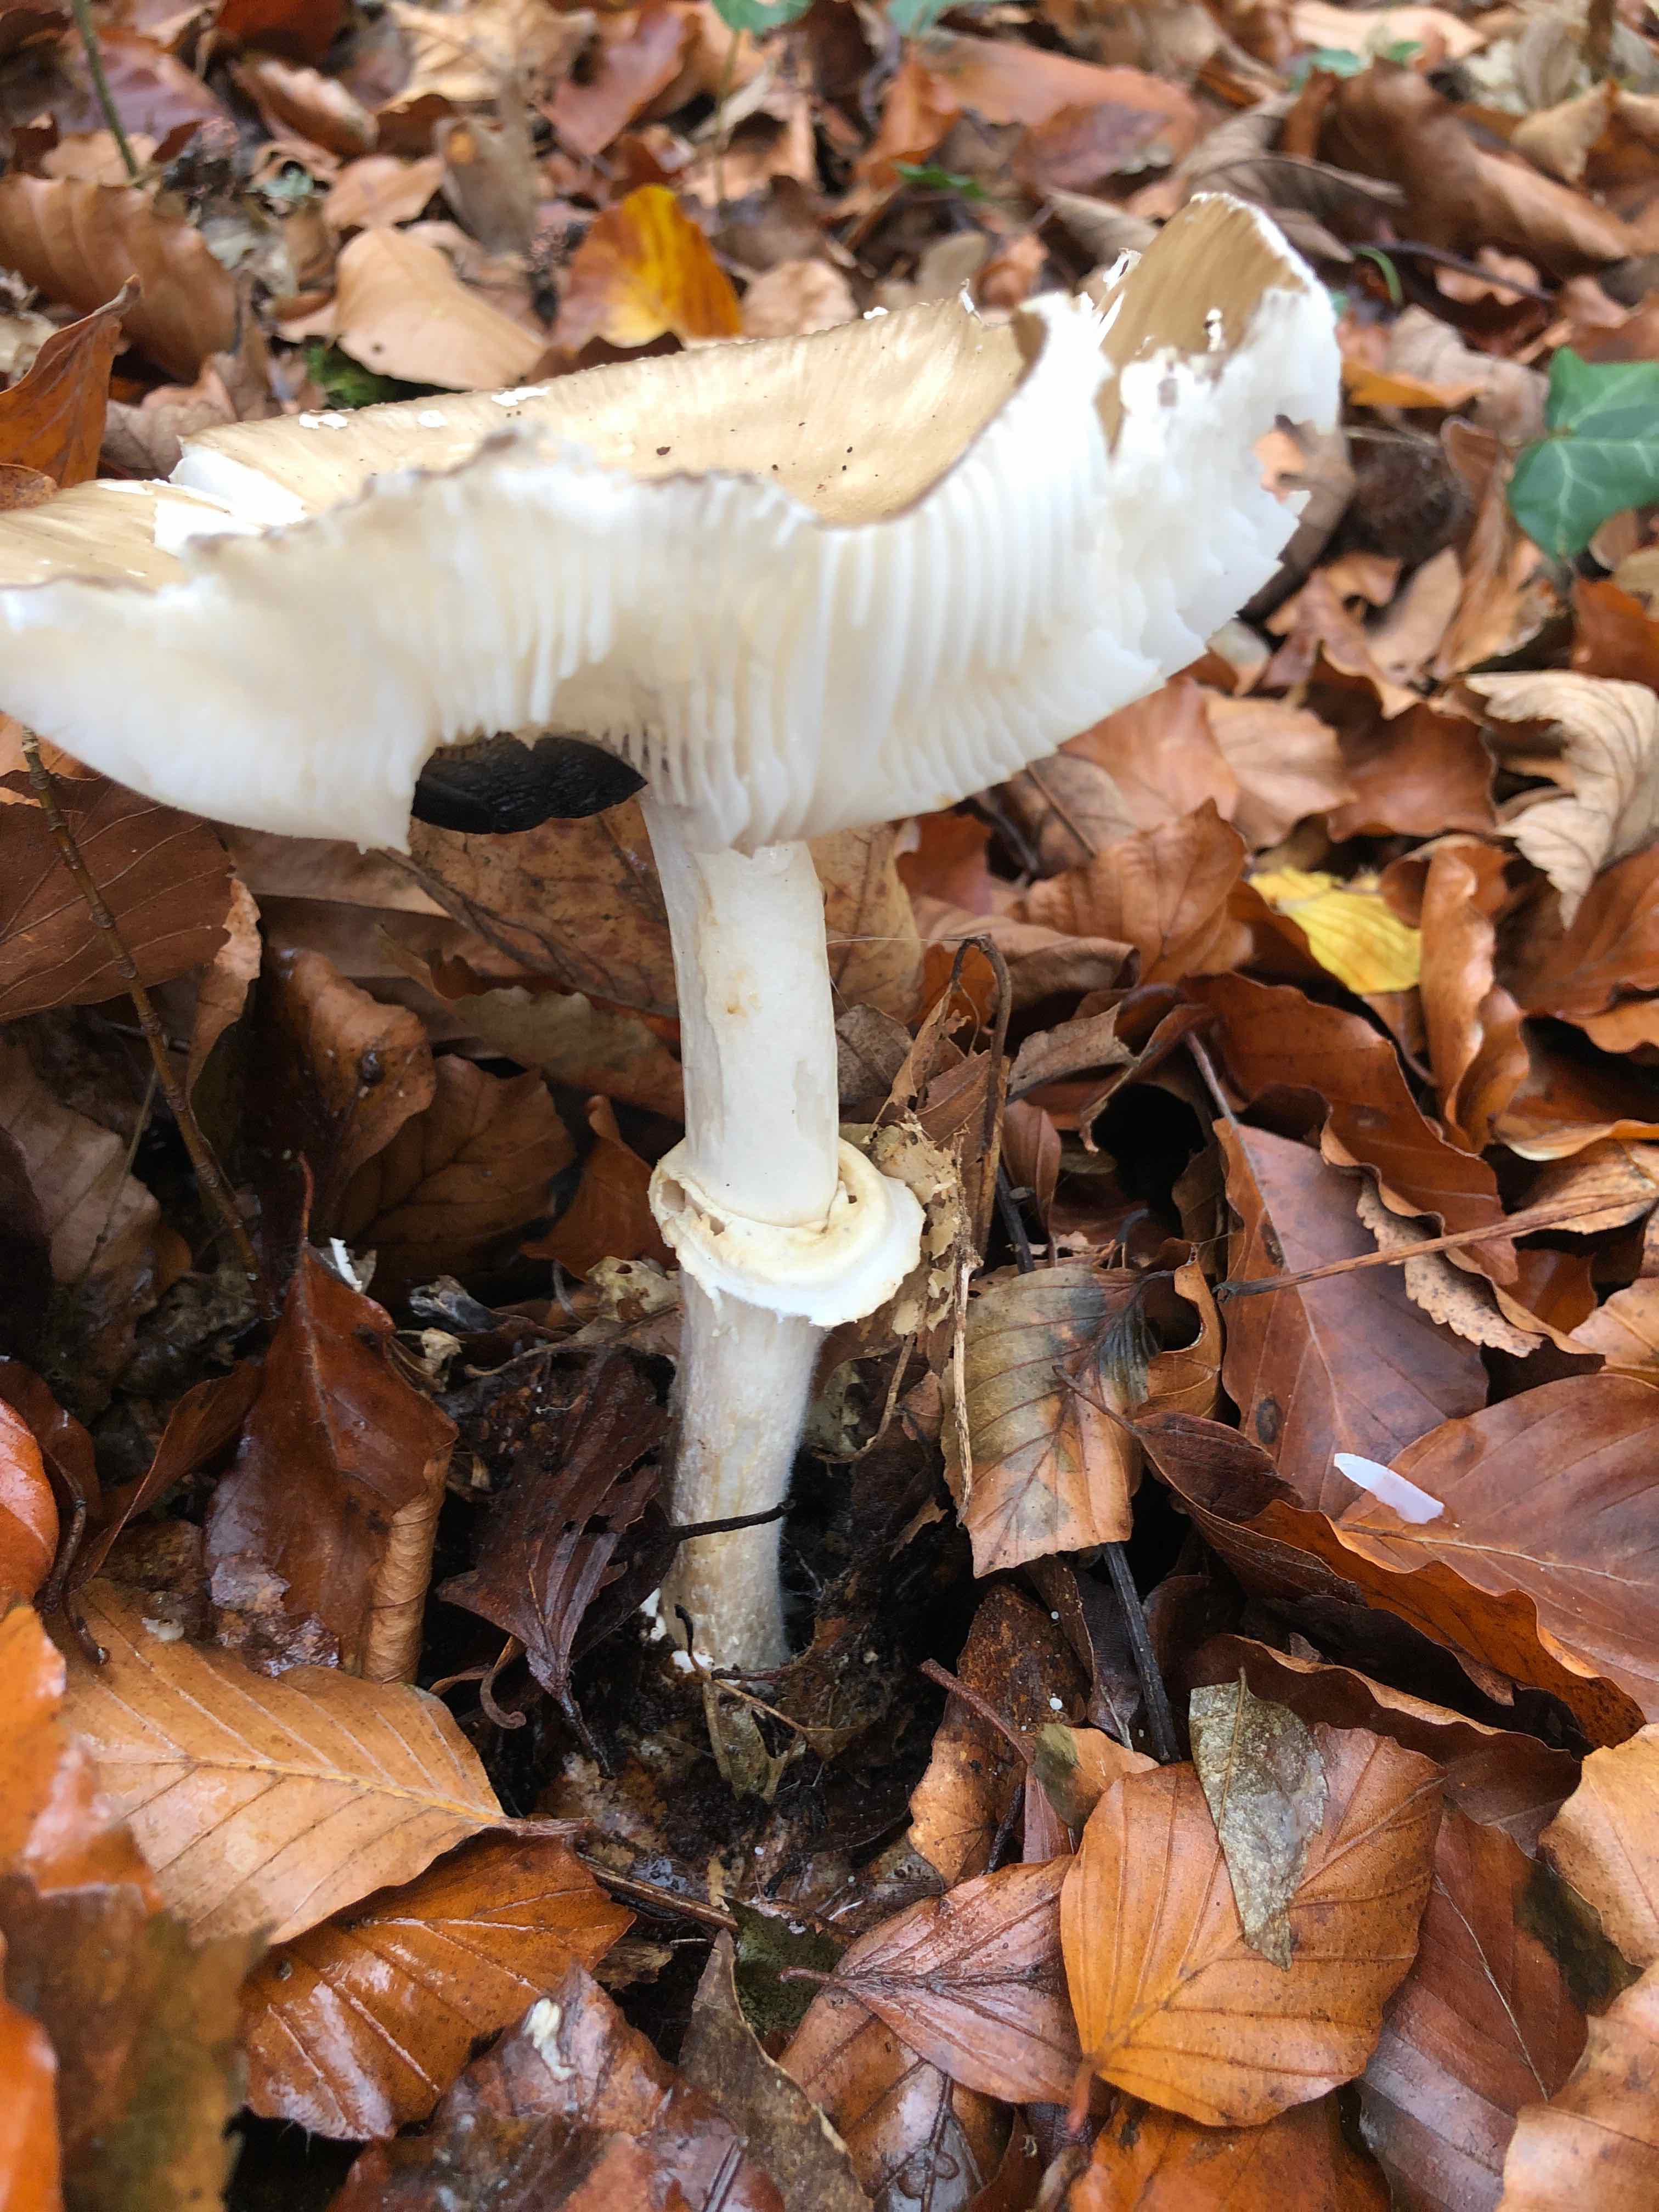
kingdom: Fungi
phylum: Basidiomycota
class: Agaricomycetes
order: Agaricales
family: Amanitaceae
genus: Amanita
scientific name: Amanita pantherina
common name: panter-fluesvamp
